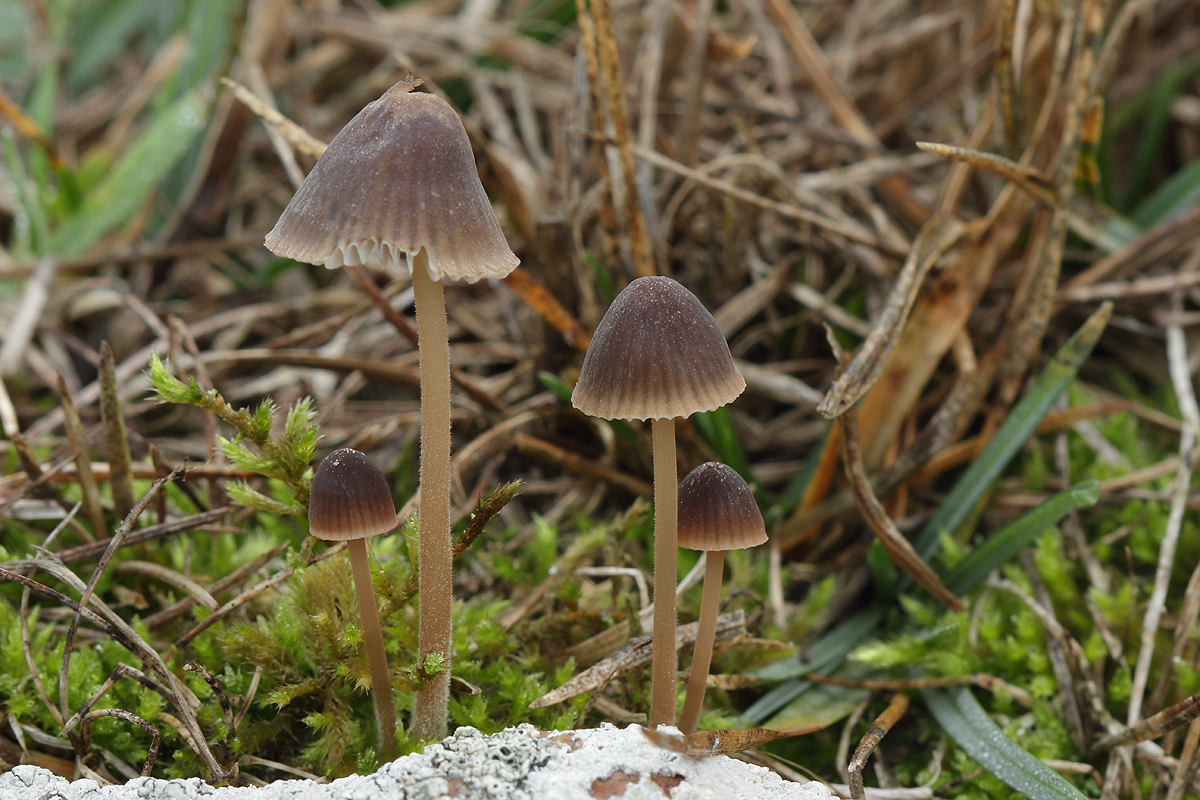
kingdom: Fungi
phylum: Basidiomycota
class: Agaricomycetes
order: Agaricales
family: Mycenaceae
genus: Mycena
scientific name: Mycena olivaceomarginata
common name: brunægget huesvamp
